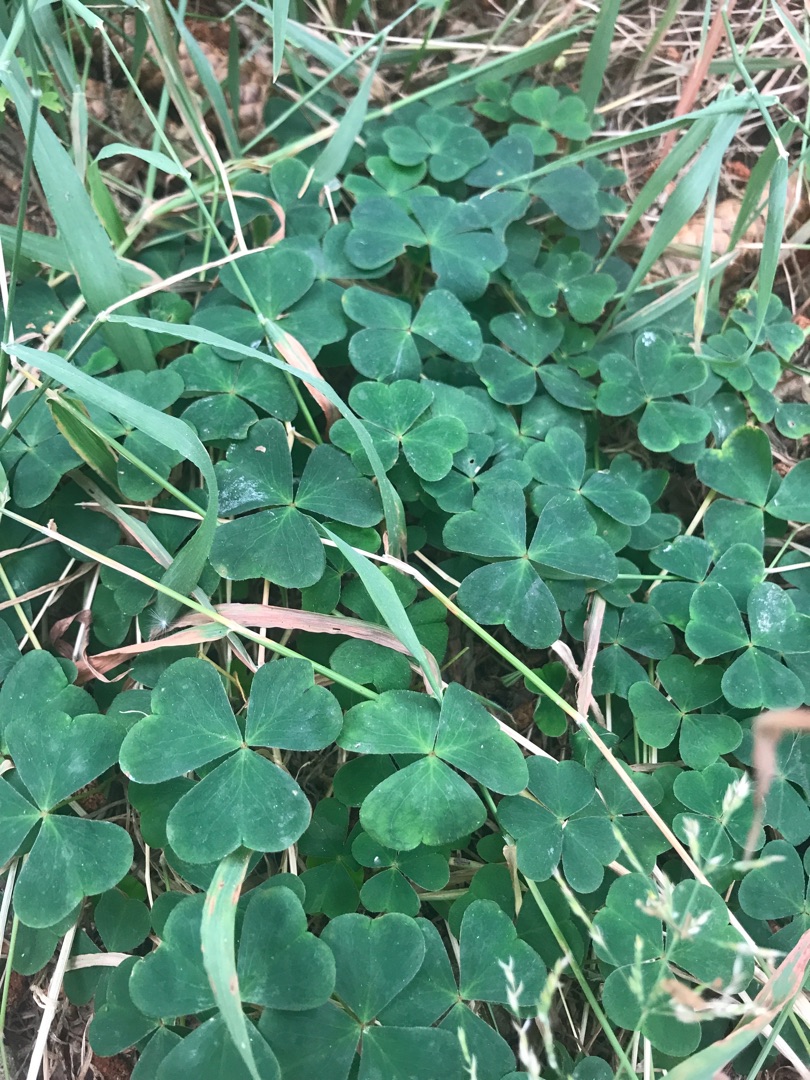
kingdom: Plantae
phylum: Tracheophyta
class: Magnoliopsida
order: Oxalidales
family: Oxalidaceae
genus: Oxalis
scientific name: Oxalis acetosella
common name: Skovsyre
